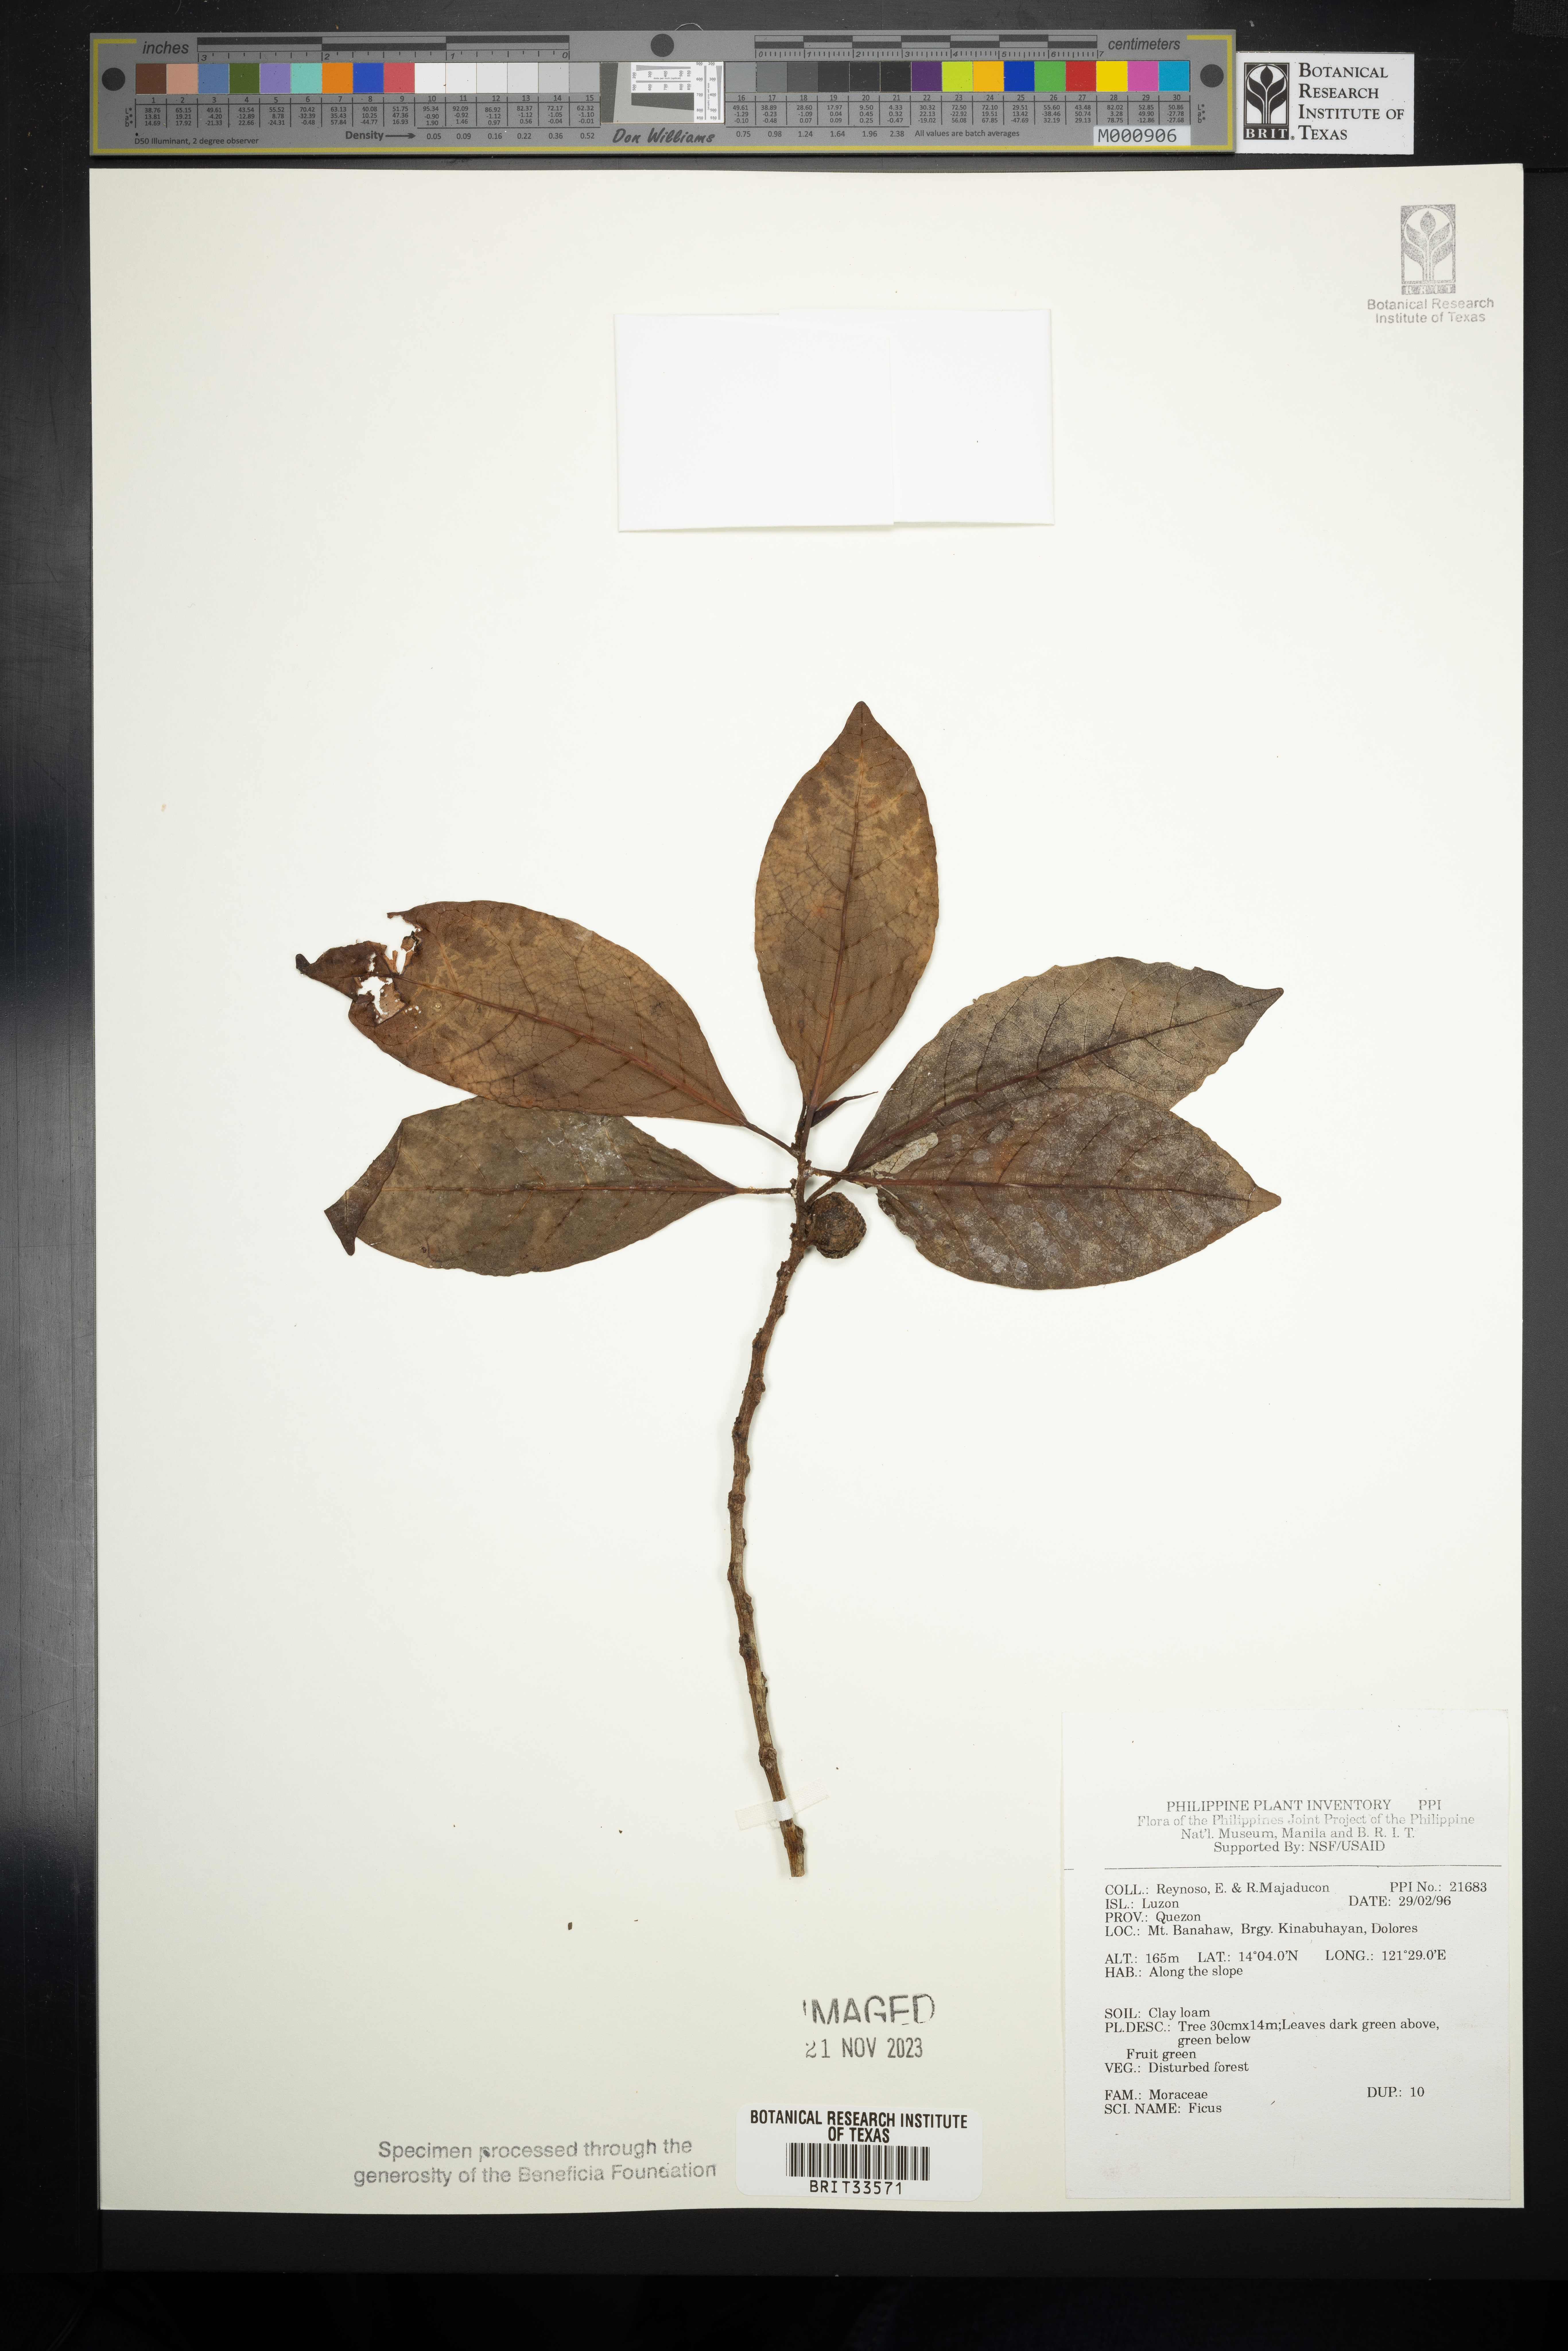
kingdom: Plantae
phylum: Tracheophyta
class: Magnoliopsida
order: Rosales
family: Moraceae
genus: Ficus
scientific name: Ficus
